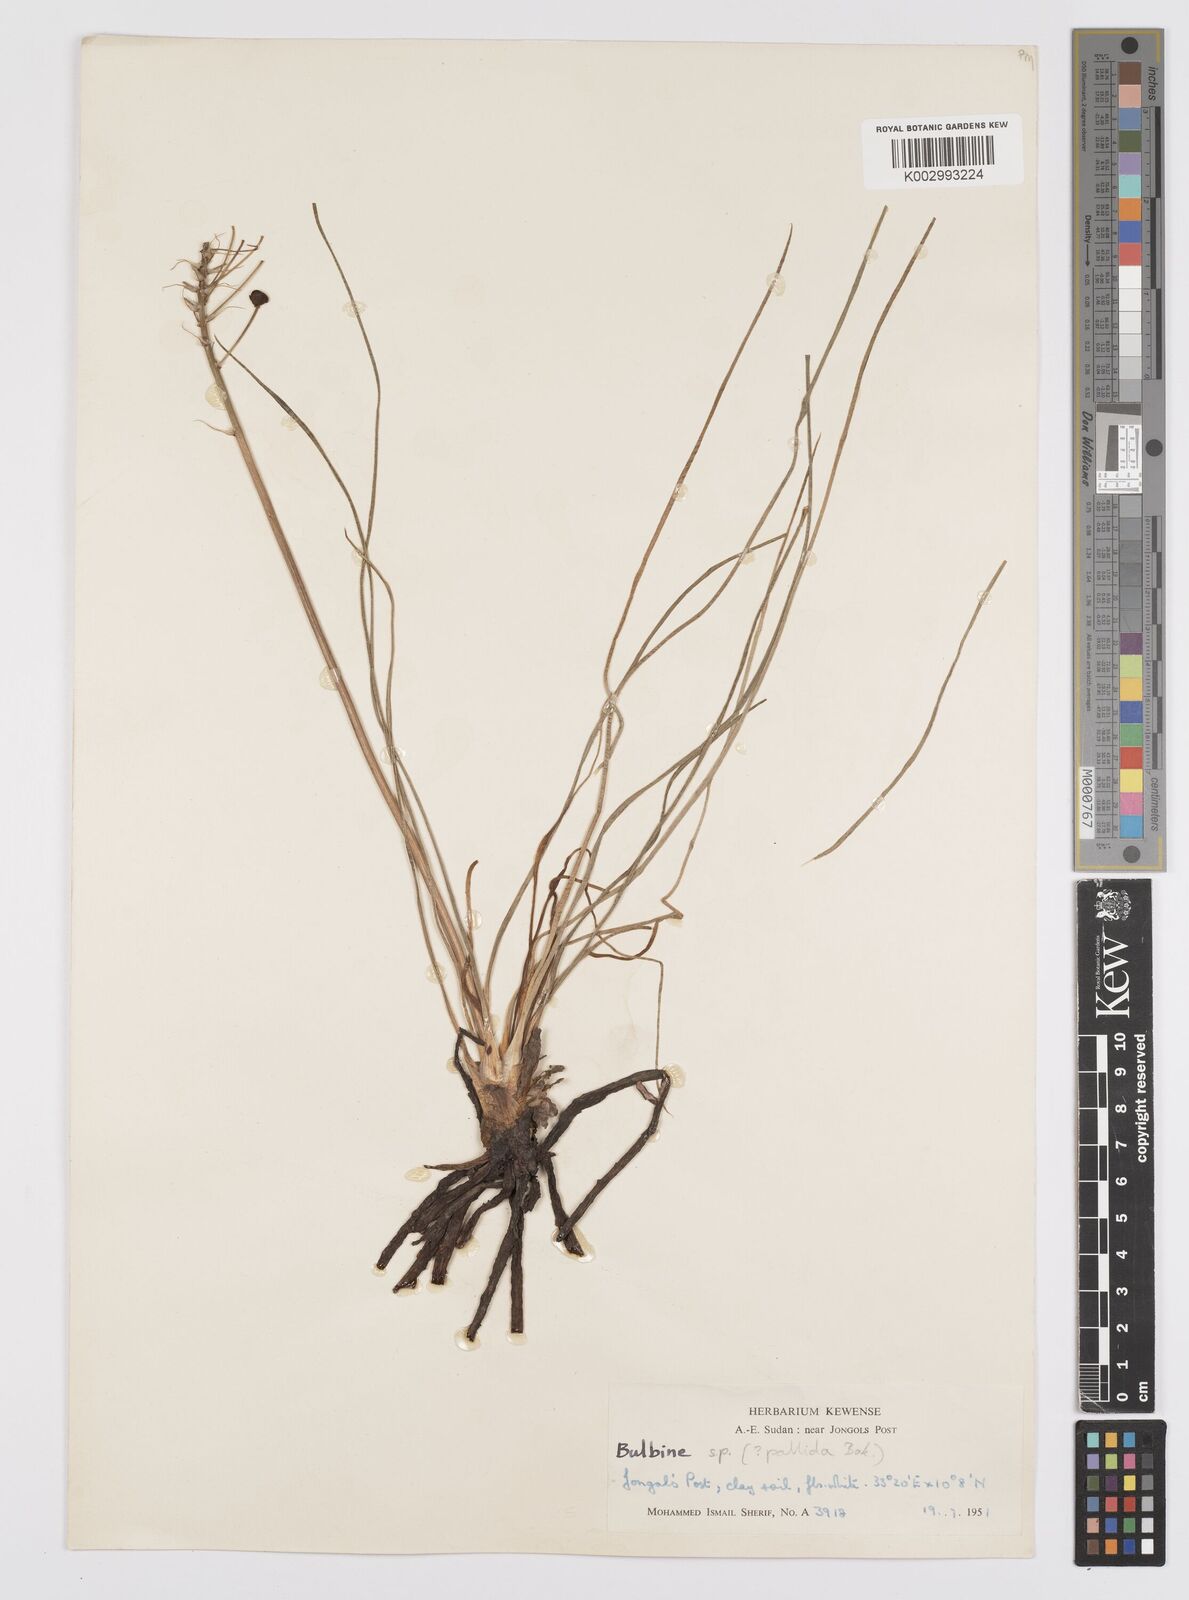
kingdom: Plantae
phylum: Tracheophyta
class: Liliopsida
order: Asparagales
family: Asphodelaceae
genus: Bulbine
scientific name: Bulbine abyssinica
